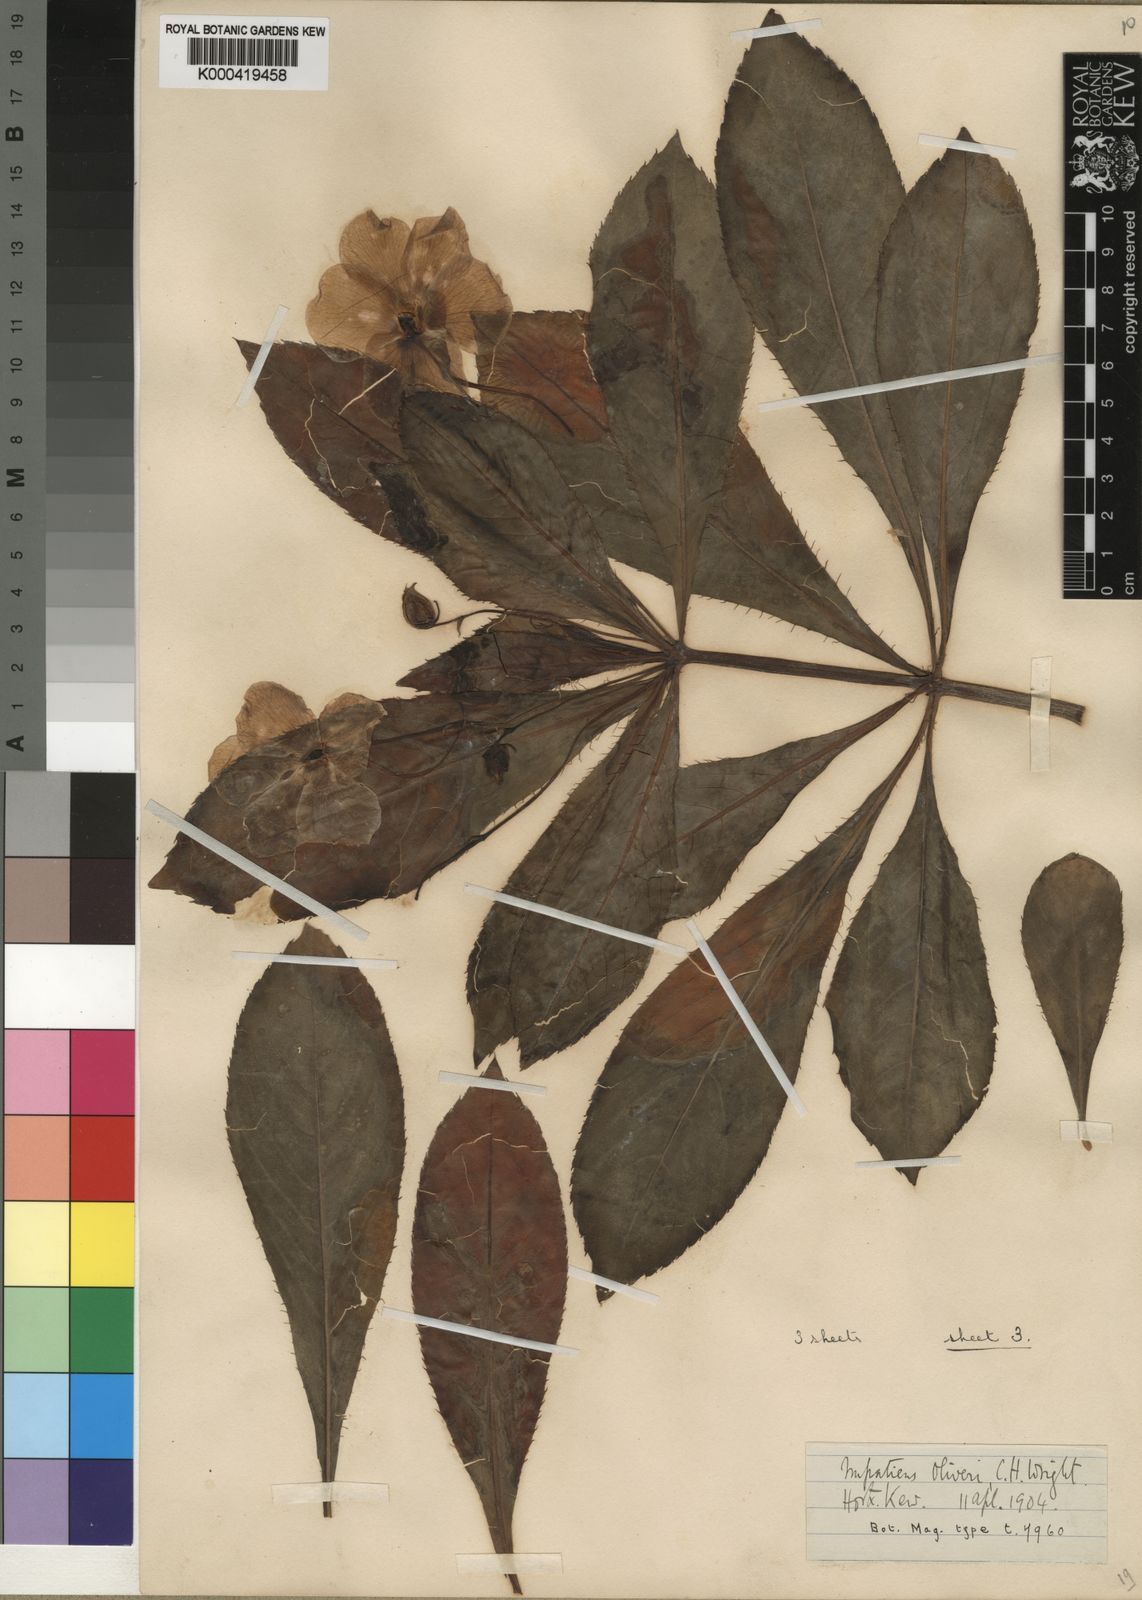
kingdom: Plantae
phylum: Tracheophyta
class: Magnoliopsida
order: Ericales
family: Balsaminaceae
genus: Impatiens
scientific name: Impatiens sodenii
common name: Oliver's touch-me-not
